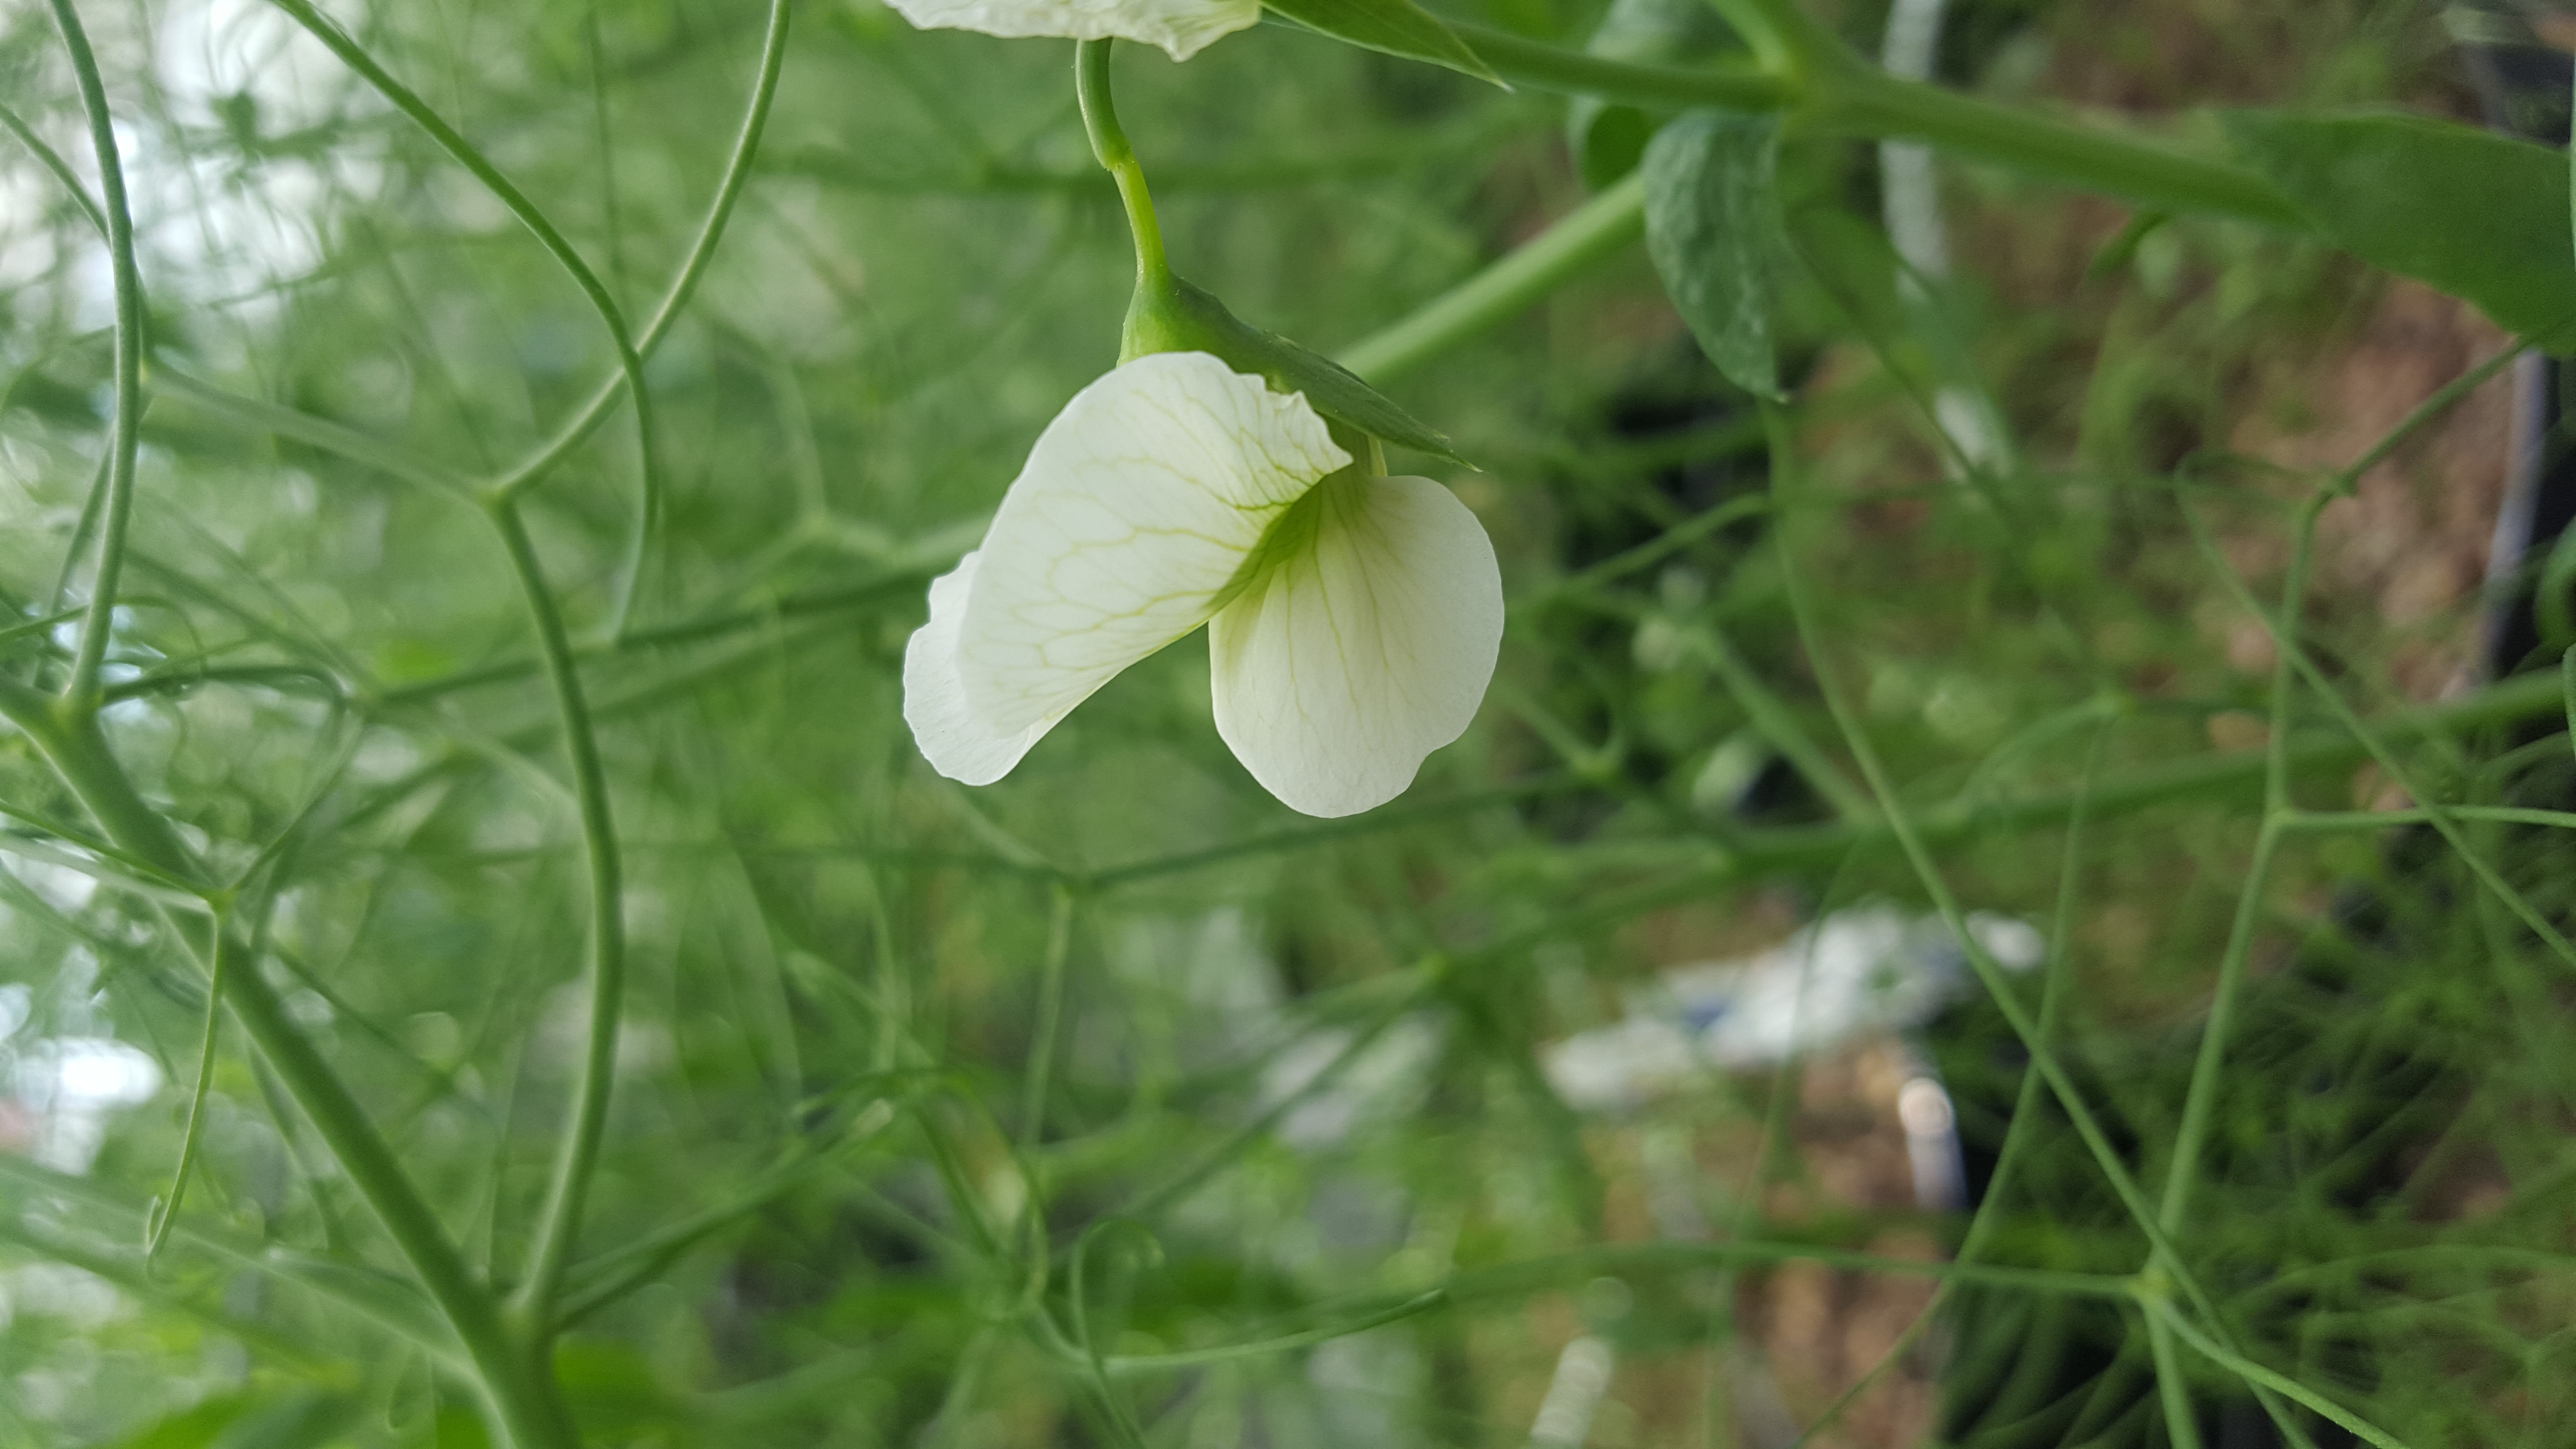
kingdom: Plantae
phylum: Tracheophyta
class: Magnoliopsida
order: Fabales
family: Fabaceae
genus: Lathyrus
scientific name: Lathyrus oleraceus
